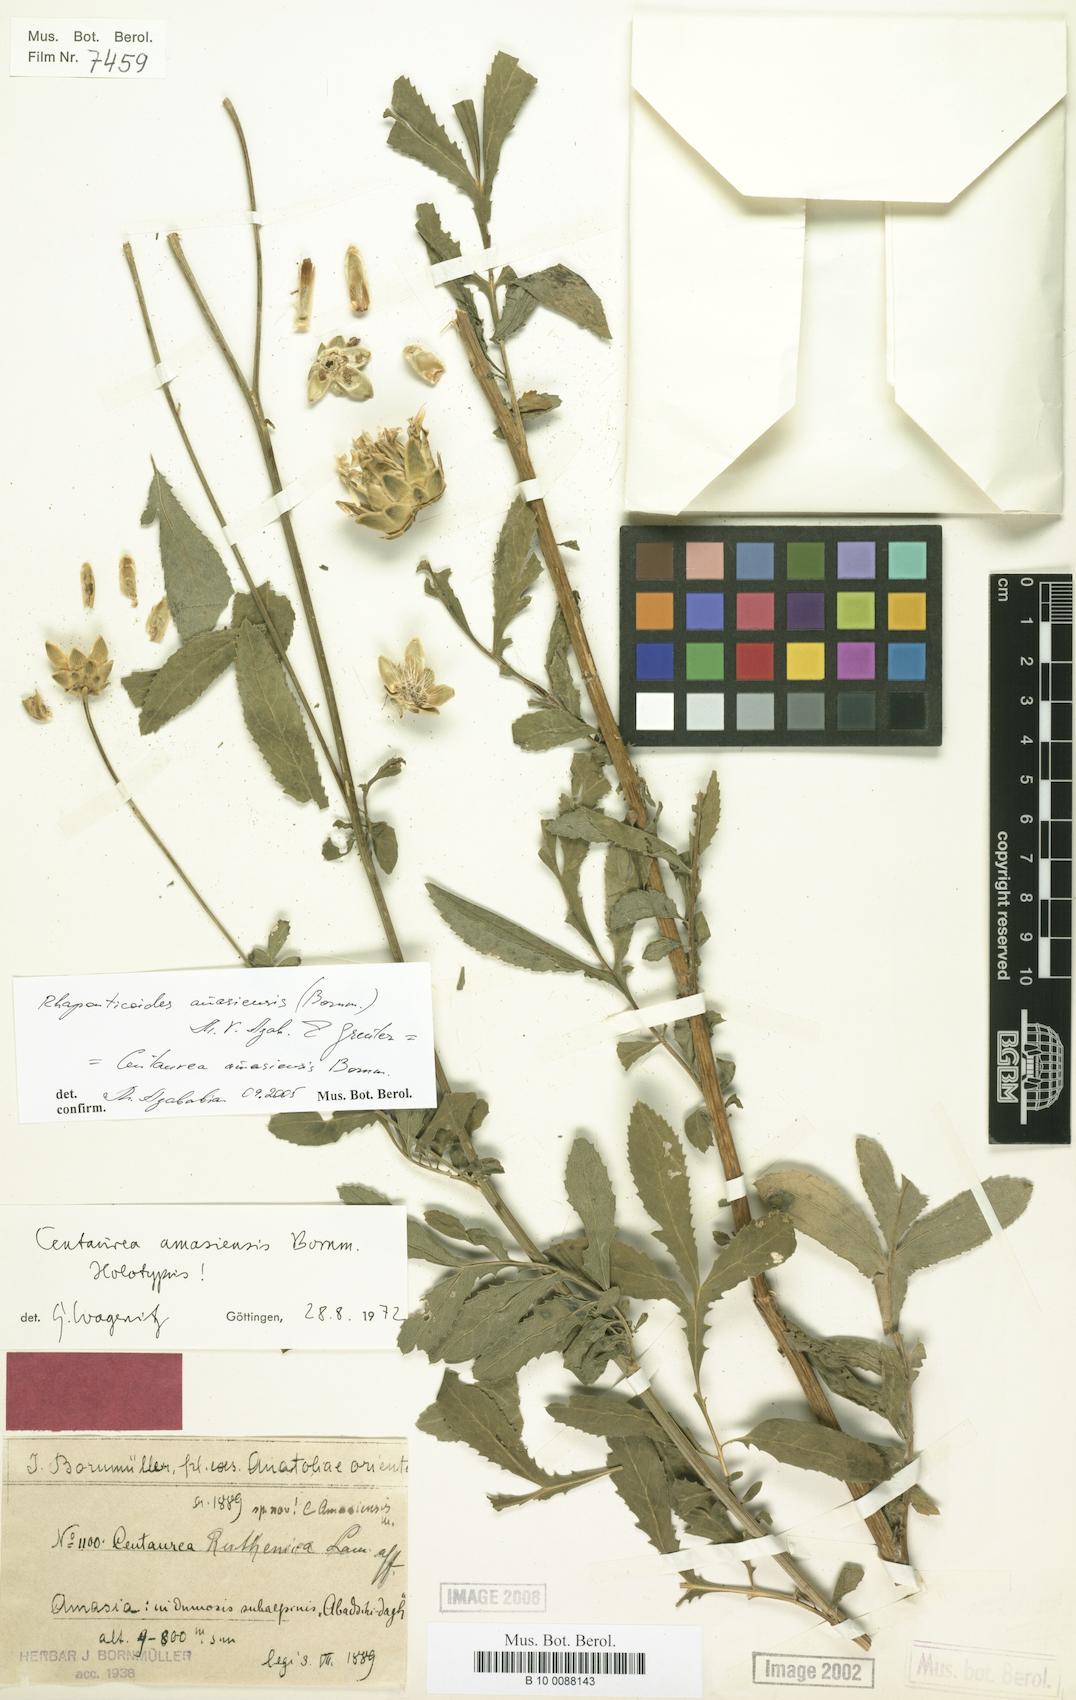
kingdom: Plantae
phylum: Tracheophyta
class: Magnoliopsida
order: Asterales
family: Asteraceae
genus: Rhaponticoides
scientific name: Rhaponticoides amasiensis
